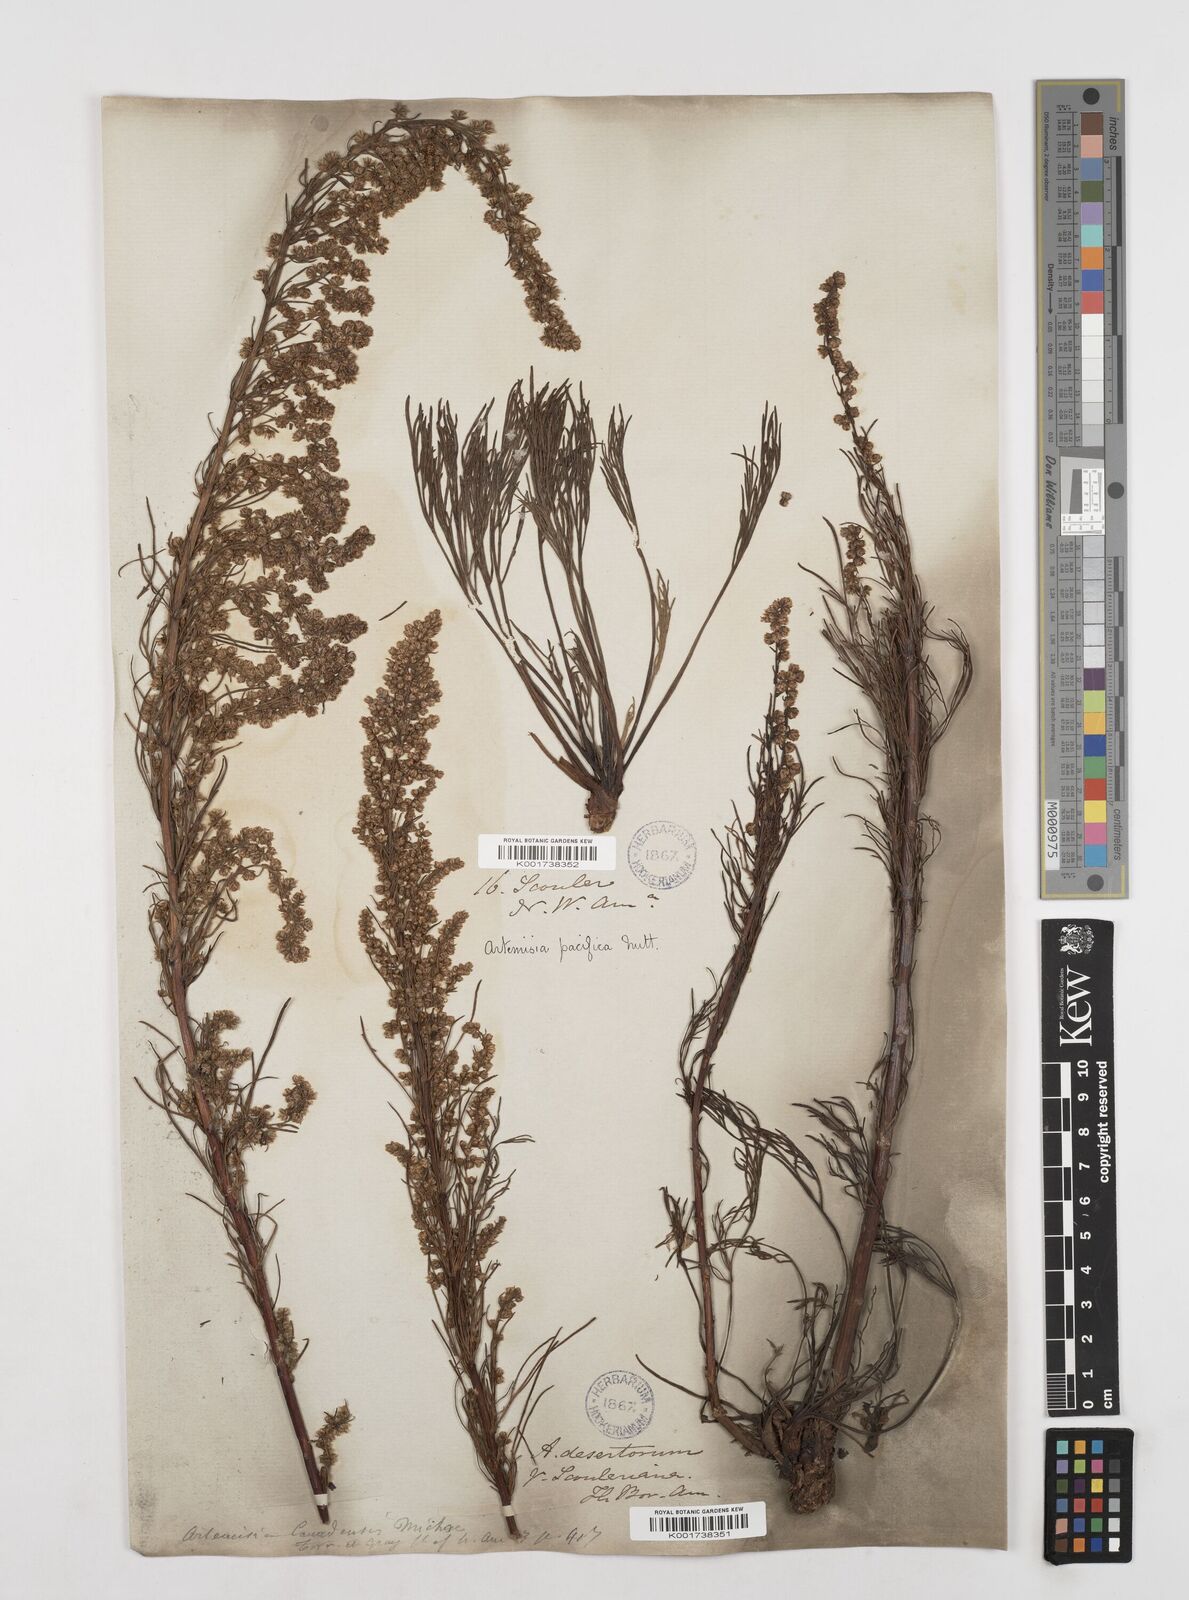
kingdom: Plantae
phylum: Tracheophyta
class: Magnoliopsida
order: Asterales
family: Asteraceae
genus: Artemisia
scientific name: Artemisia campestris
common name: Field wormwood
